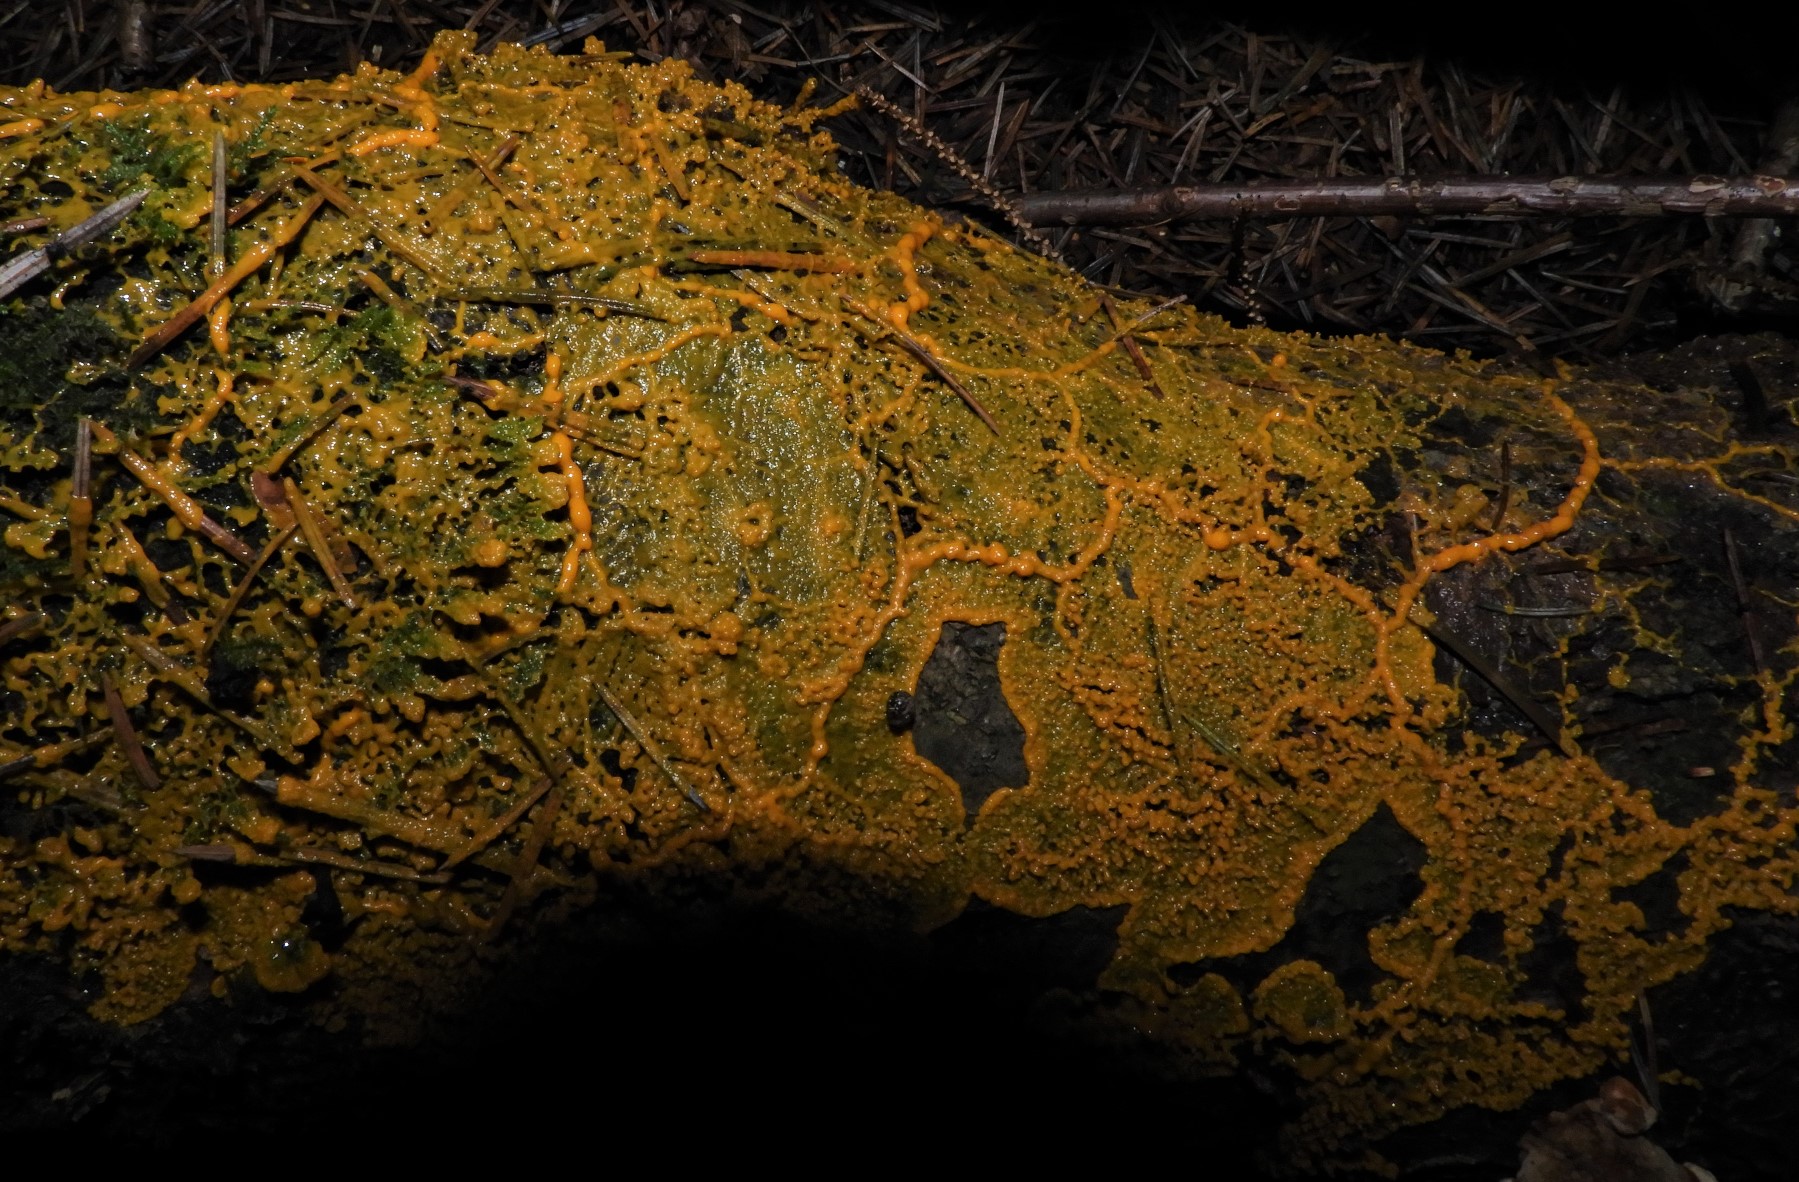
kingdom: Protozoa
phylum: Mycetozoa
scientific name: Mycetozoa
